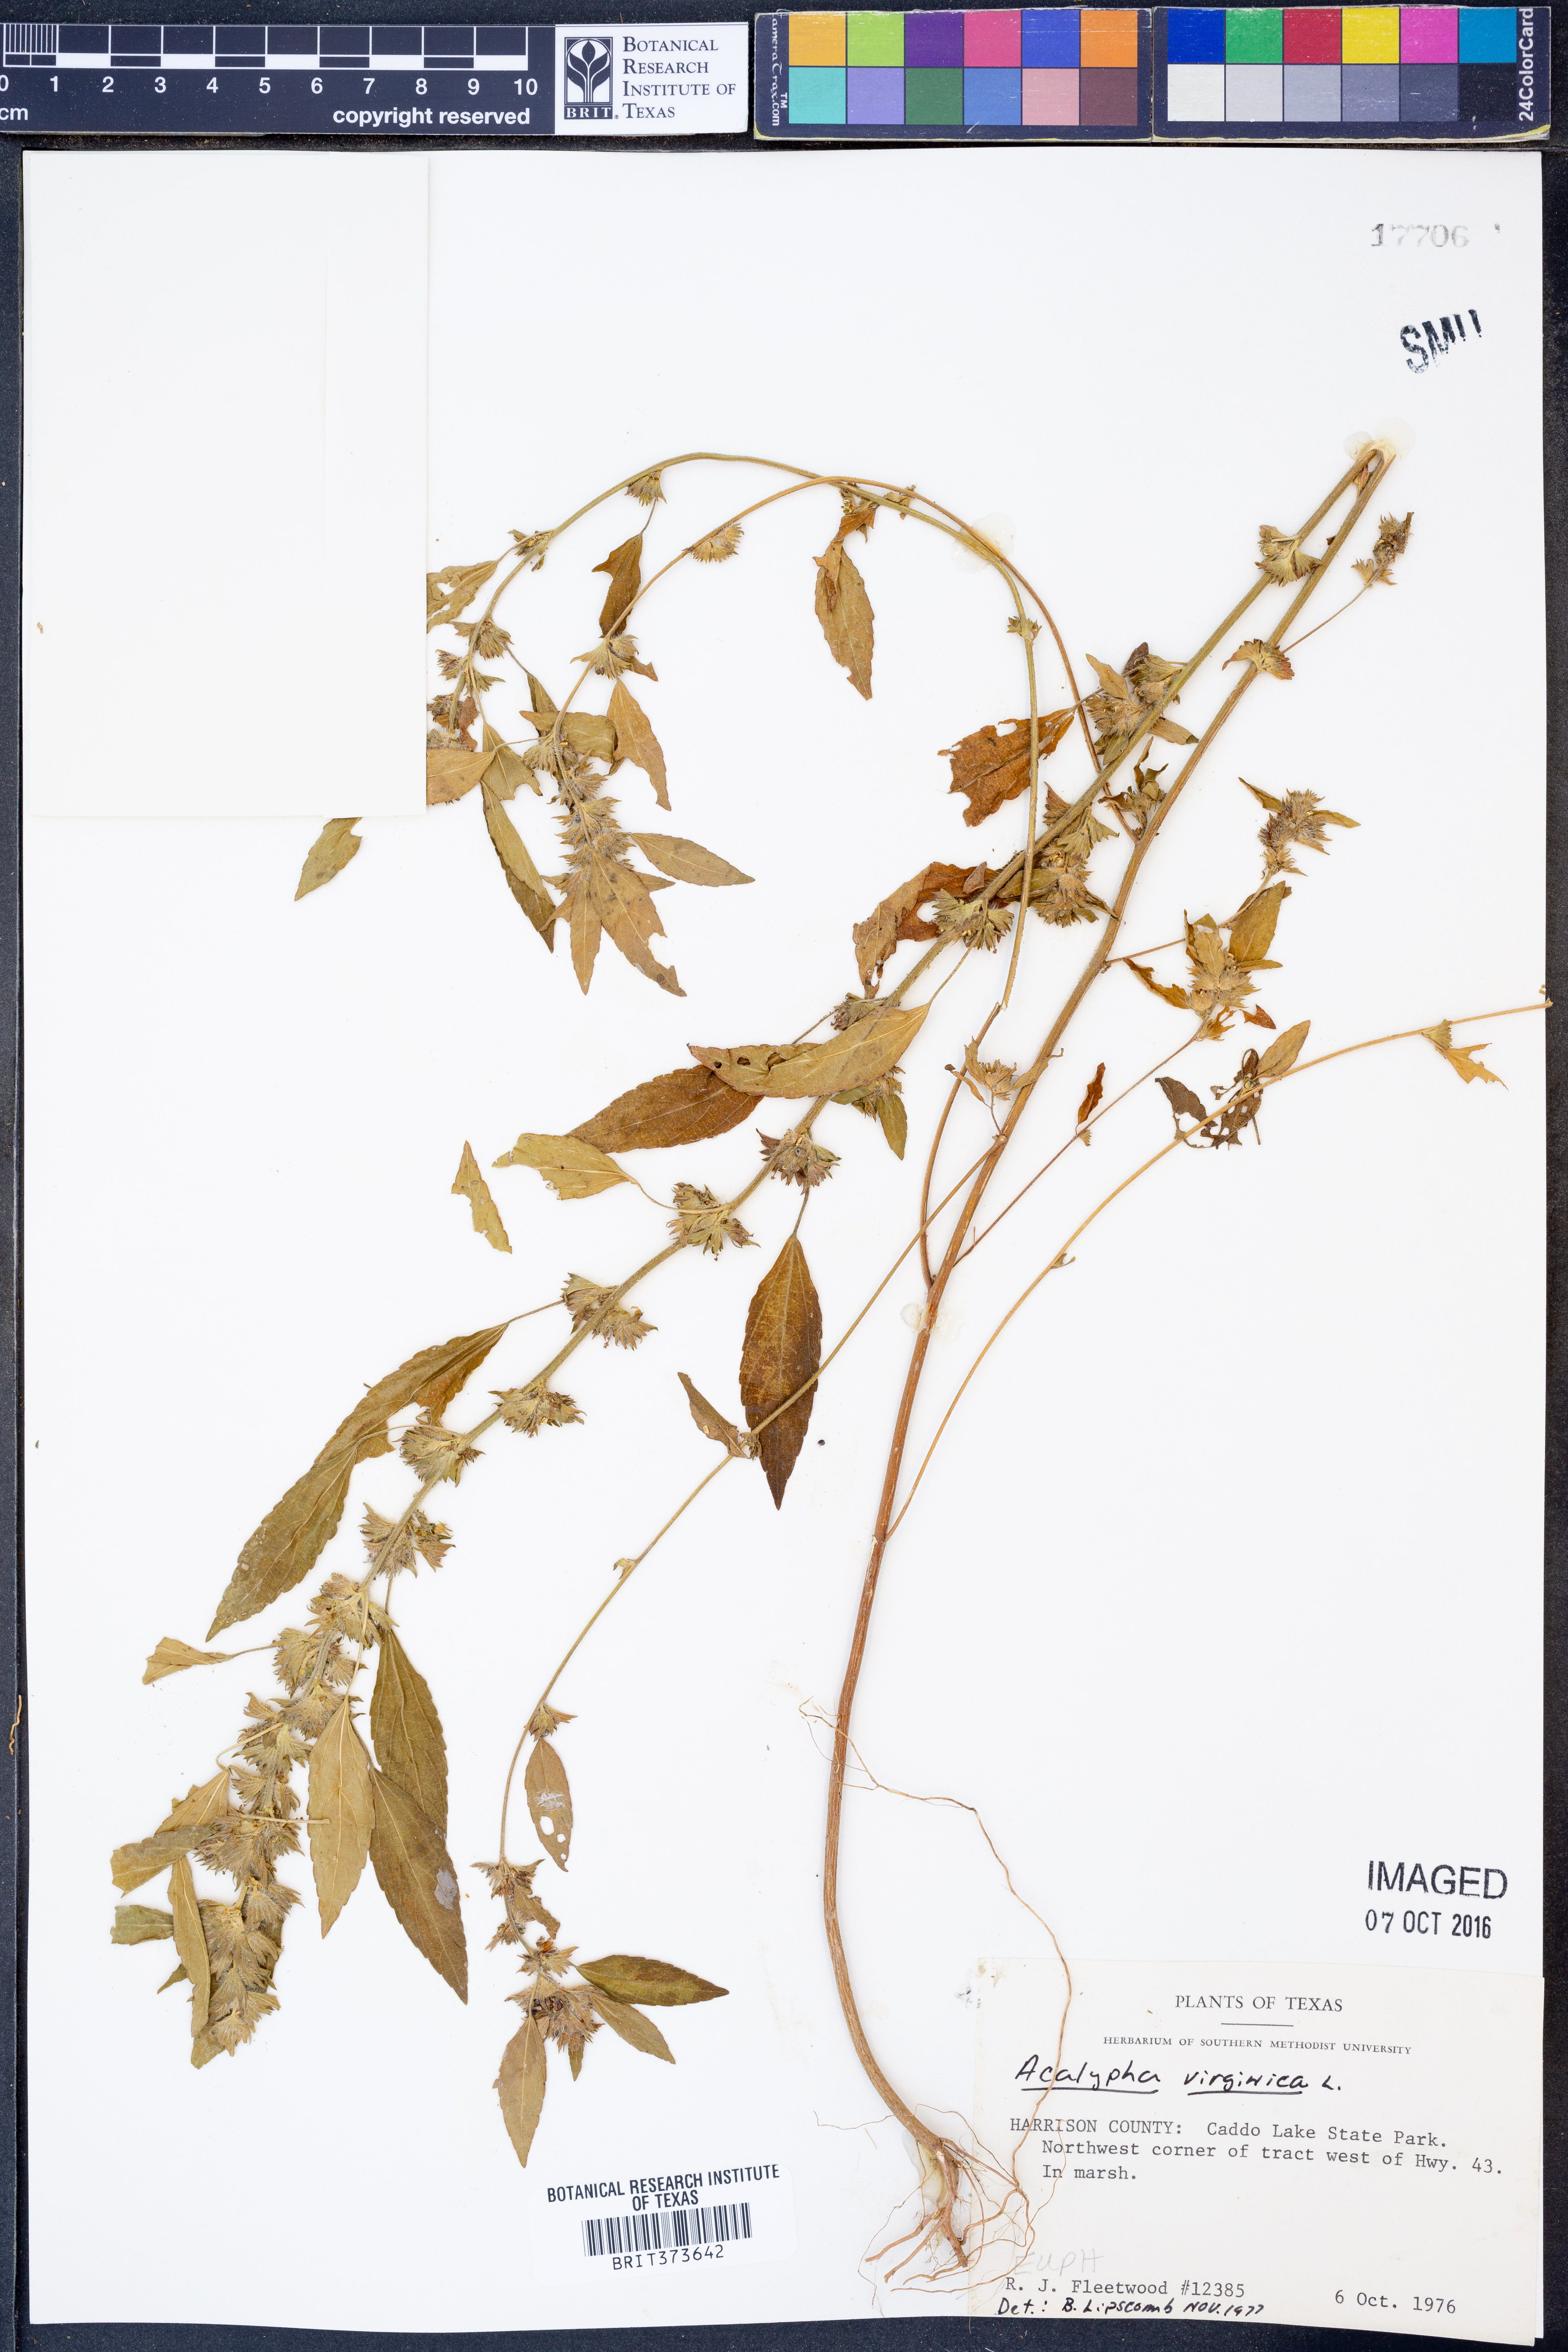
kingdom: Plantae
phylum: Tracheophyta
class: Magnoliopsida
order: Malpighiales
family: Euphorbiaceae
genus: Acalypha
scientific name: Acalypha virginica
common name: Virginia copperleaf
